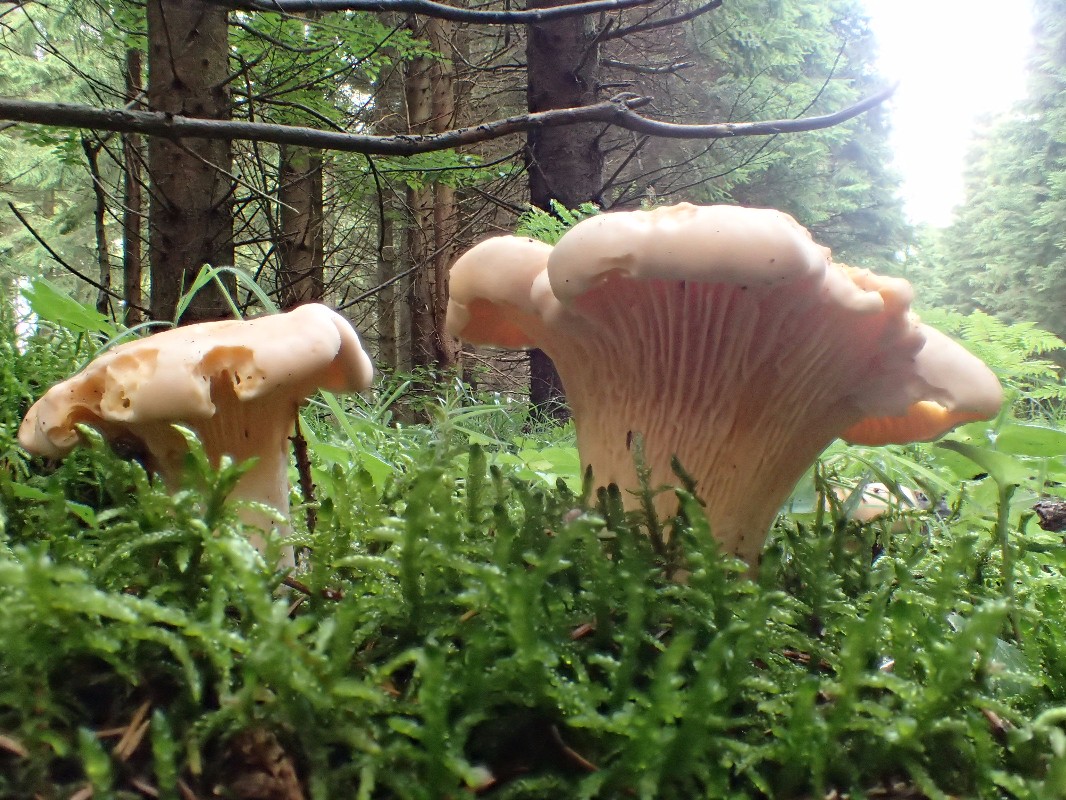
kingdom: Fungi
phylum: Basidiomycota
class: Agaricomycetes
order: Cantharellales
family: Hydnaceae
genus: Cantharellus
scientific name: Cantharellus
